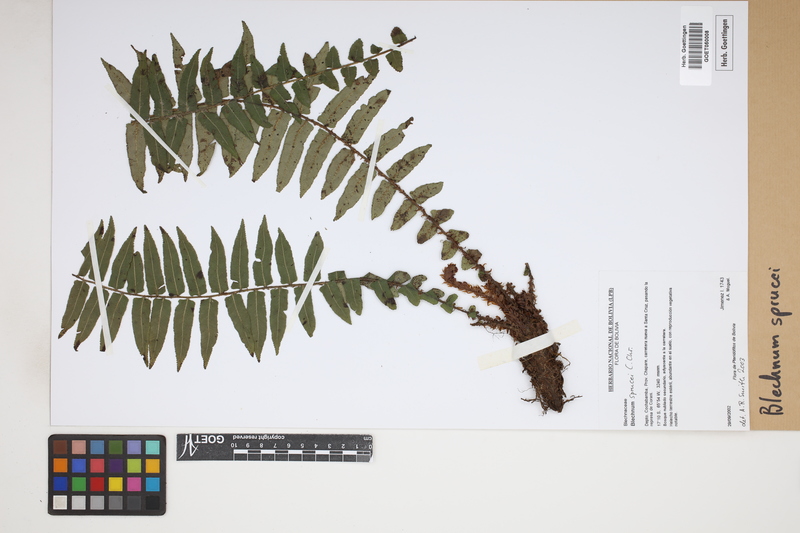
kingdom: Plantae
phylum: Tracheophyta
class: Polypodiopsida
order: Polypodiales
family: Blechnaceae
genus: Cranfillia
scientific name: Cranfillia caudata
